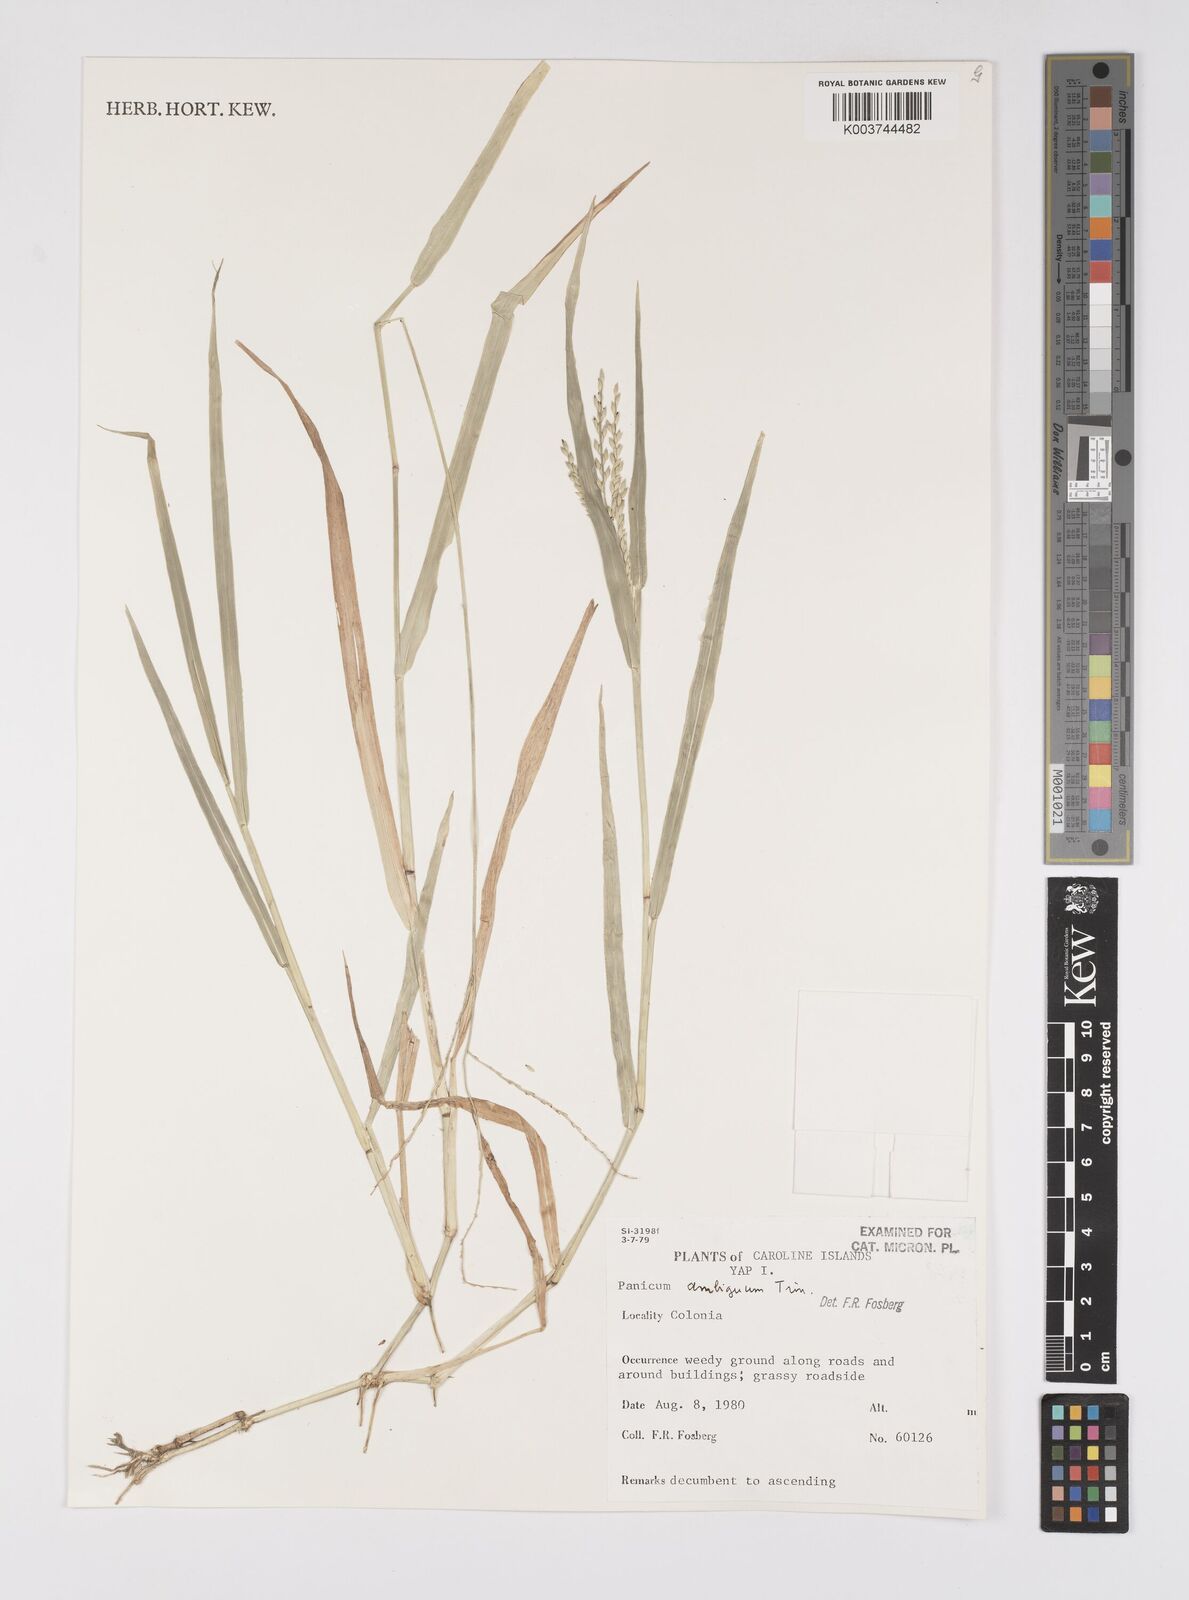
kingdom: Plantae
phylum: Tracheophyta
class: Liliopsida
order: Poales
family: Poaceae
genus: Urochloa
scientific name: Urochloa glumaris
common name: Thurston grass
